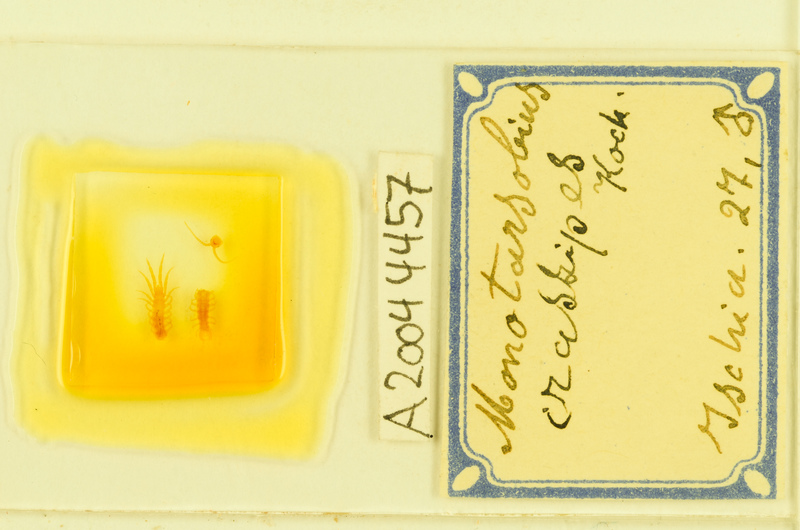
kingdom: Animalia
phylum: Arthropoda
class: Chilopoda
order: Lithobiomorpha
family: Lithobiidae
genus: Lithobius
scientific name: Lithobius crassipes
